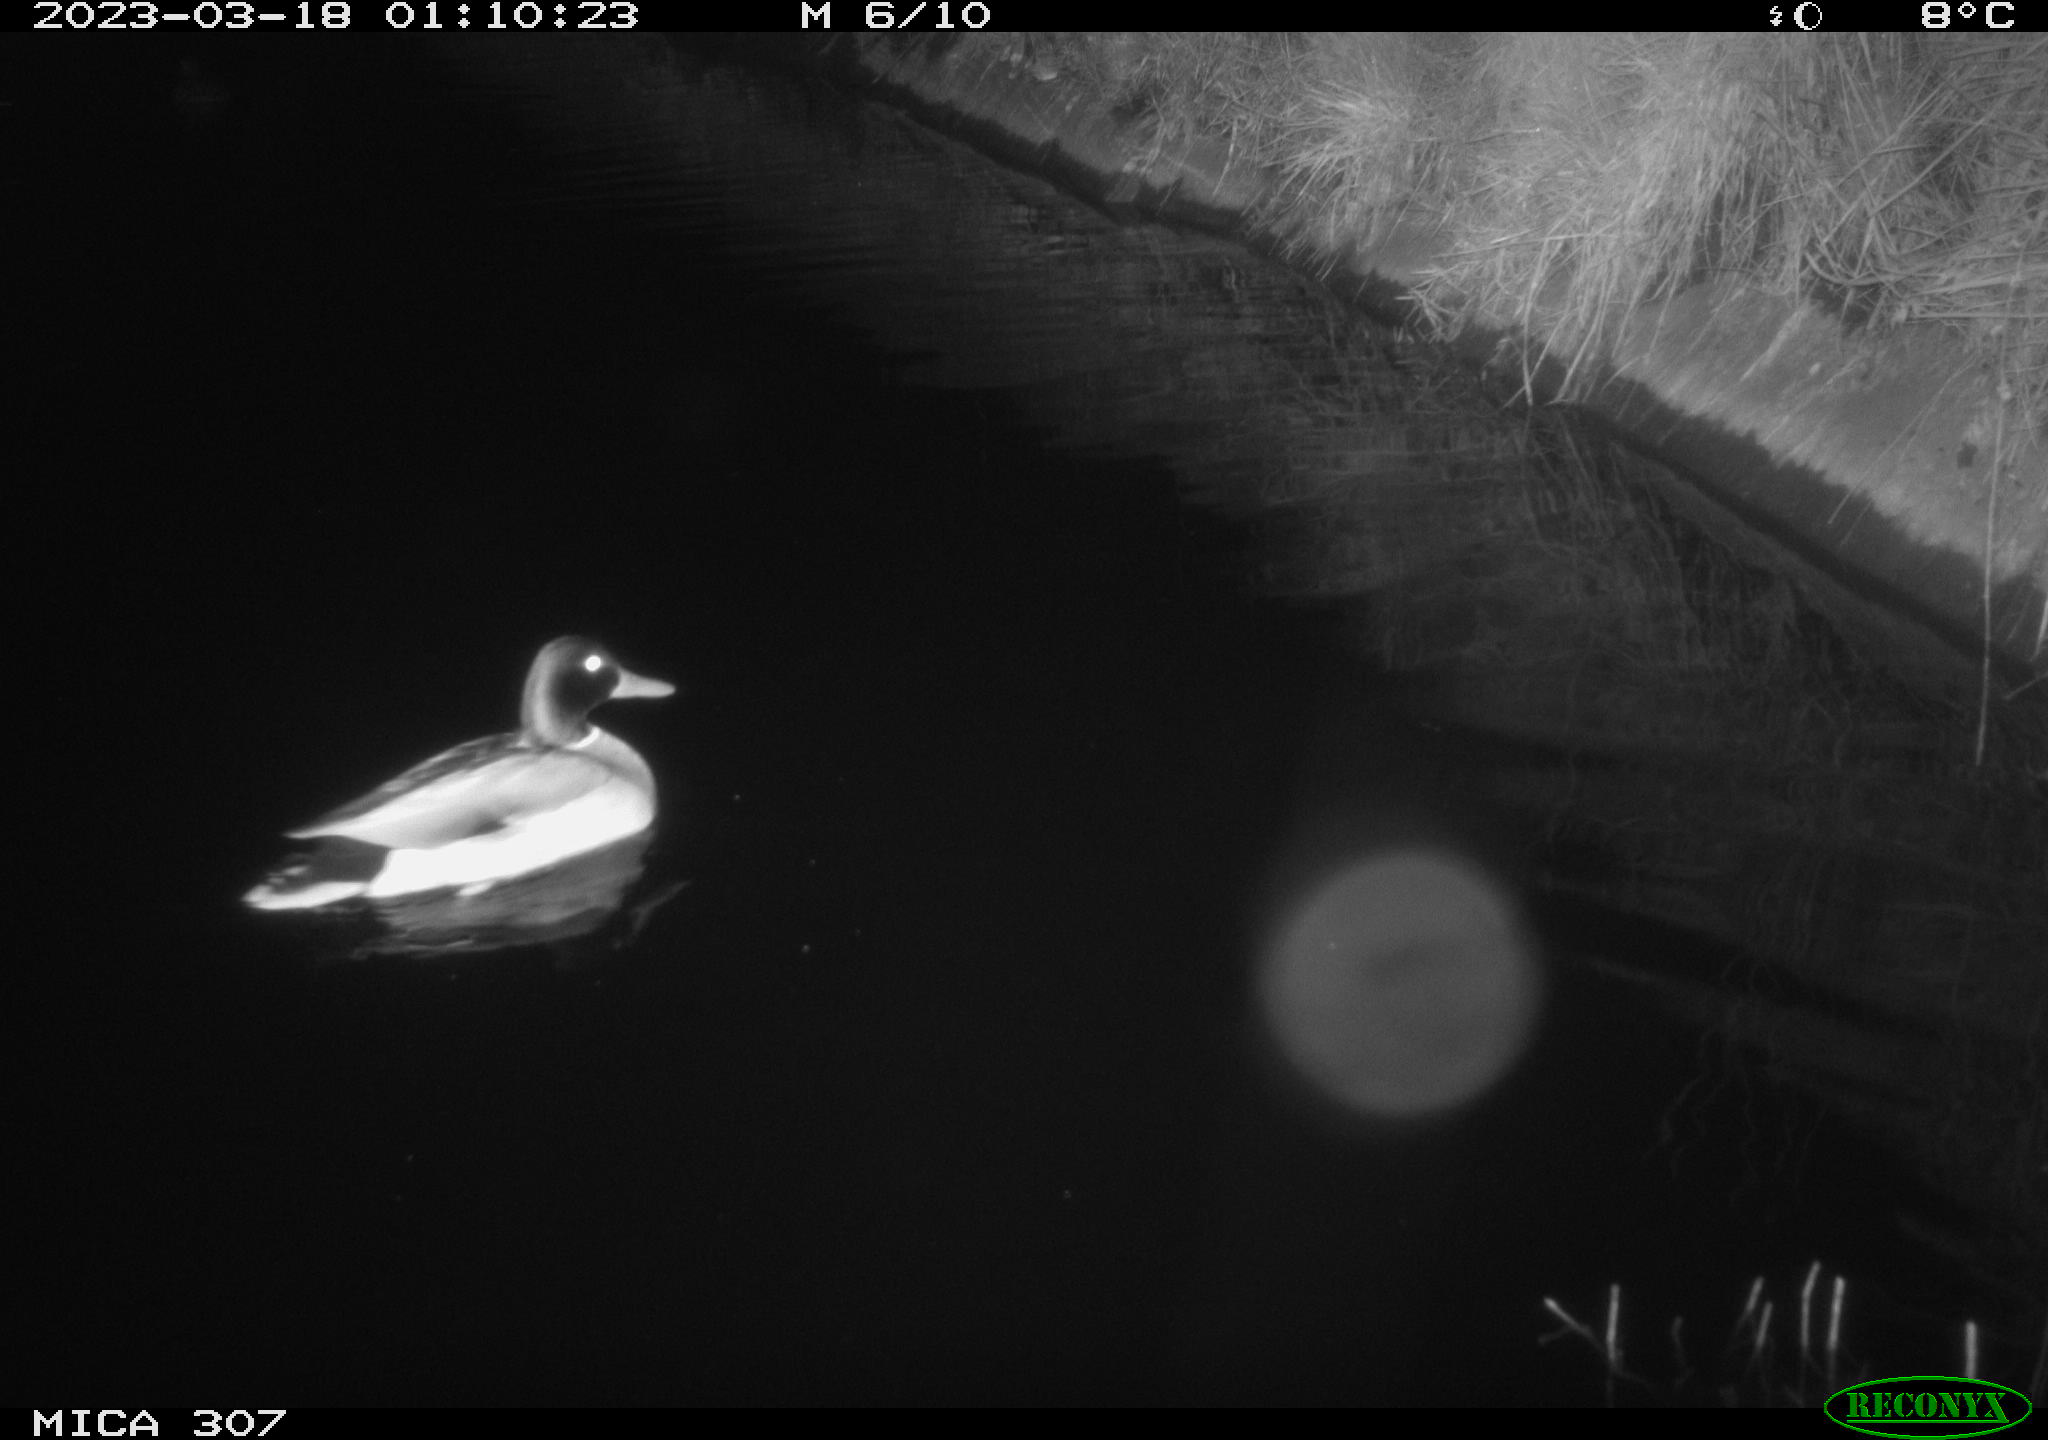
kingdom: Animalia
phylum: Chordata
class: Aves
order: Gruiformes
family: Rallidae
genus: Fulica
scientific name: Fulica atra
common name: Eurasian coot
